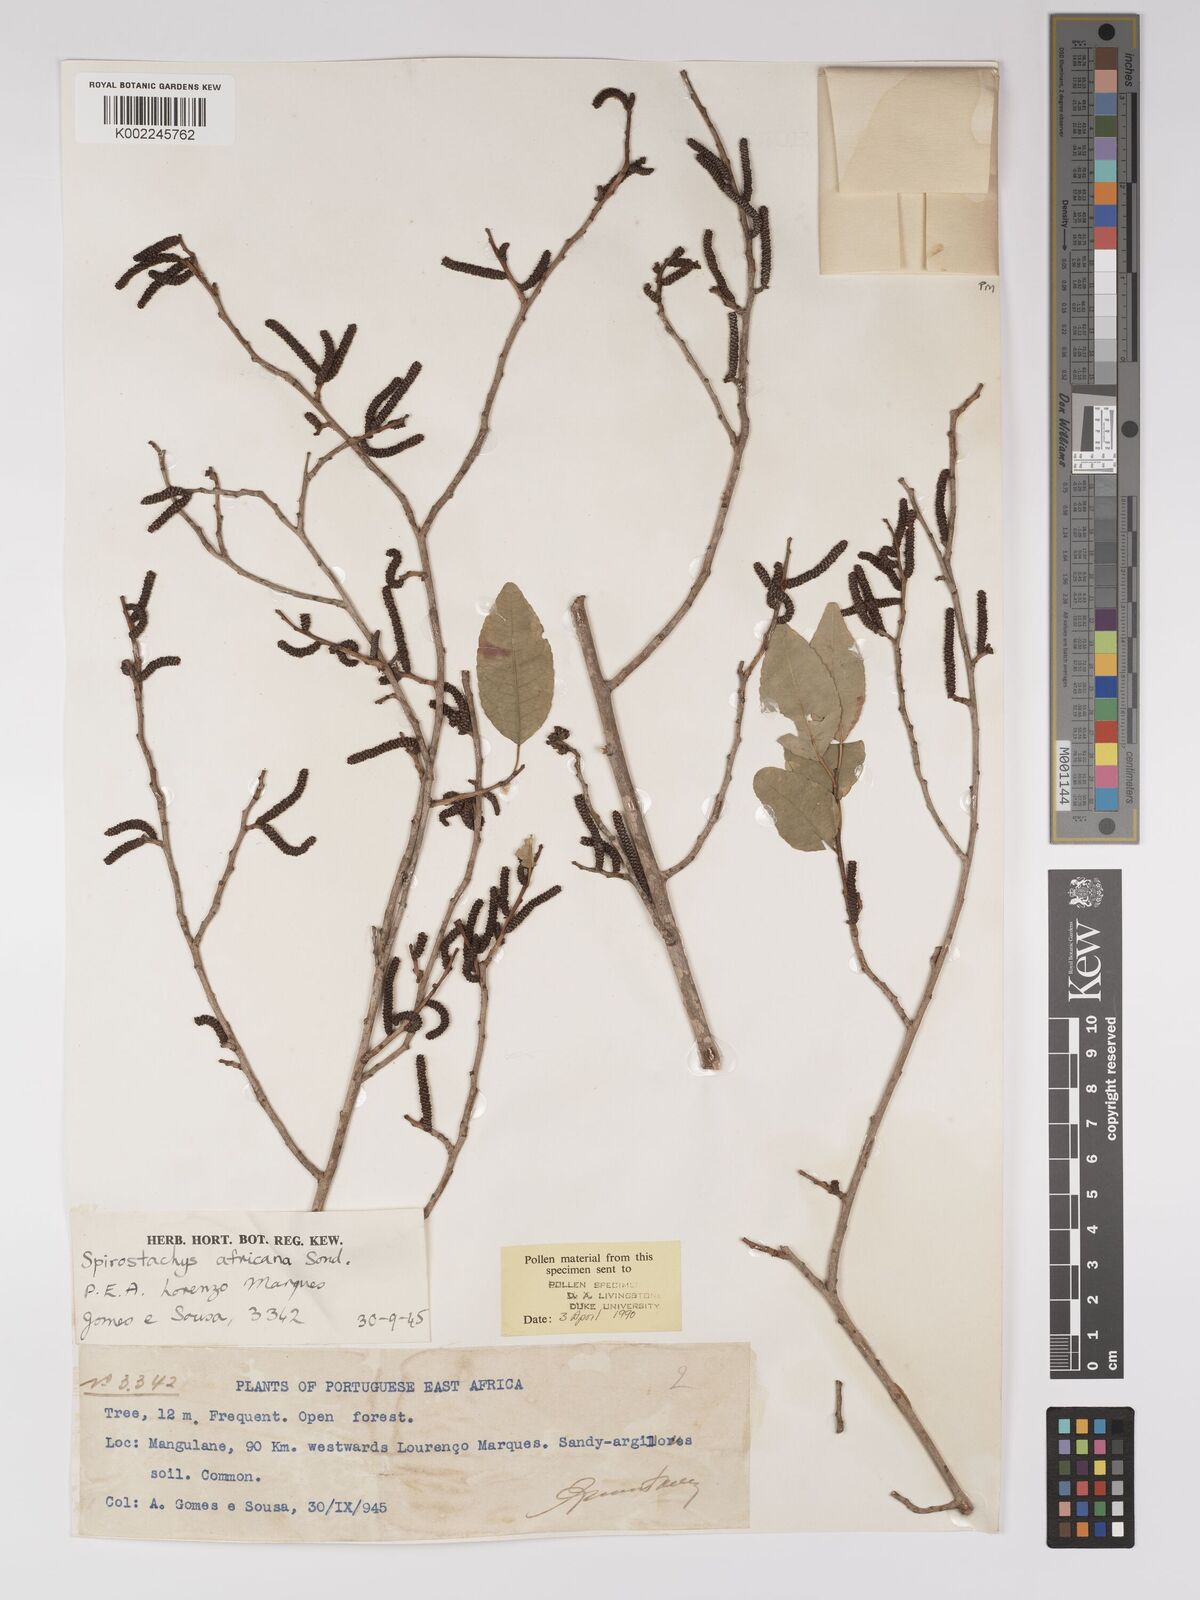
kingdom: Plantae
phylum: Tracheophyta
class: Magnoliopsida
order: Malpighiales
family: Euphorbiaceae
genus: Spirostachys
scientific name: Spirostachys africana
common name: Tamboti
